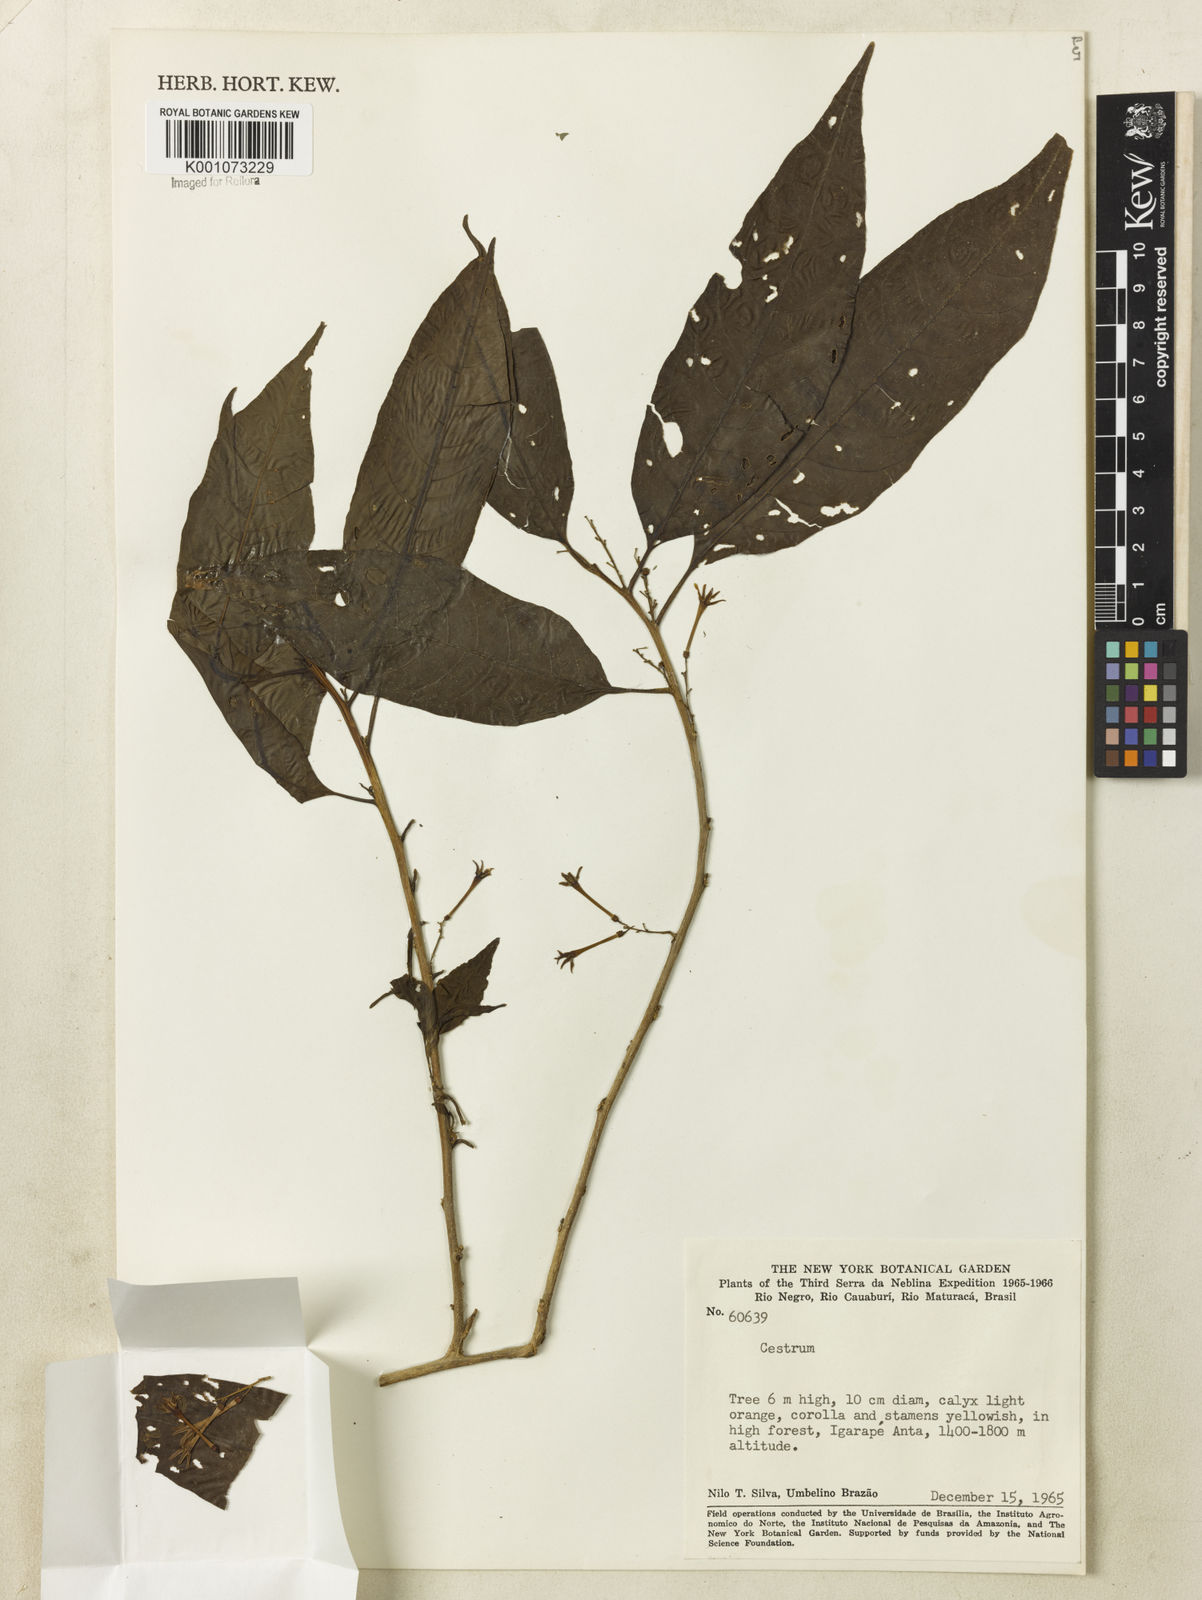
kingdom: Plantae
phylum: Tracheophyta
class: Magnoliopsida
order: Solanales
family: Solanaceae
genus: Cestrum
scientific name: Cestrum
